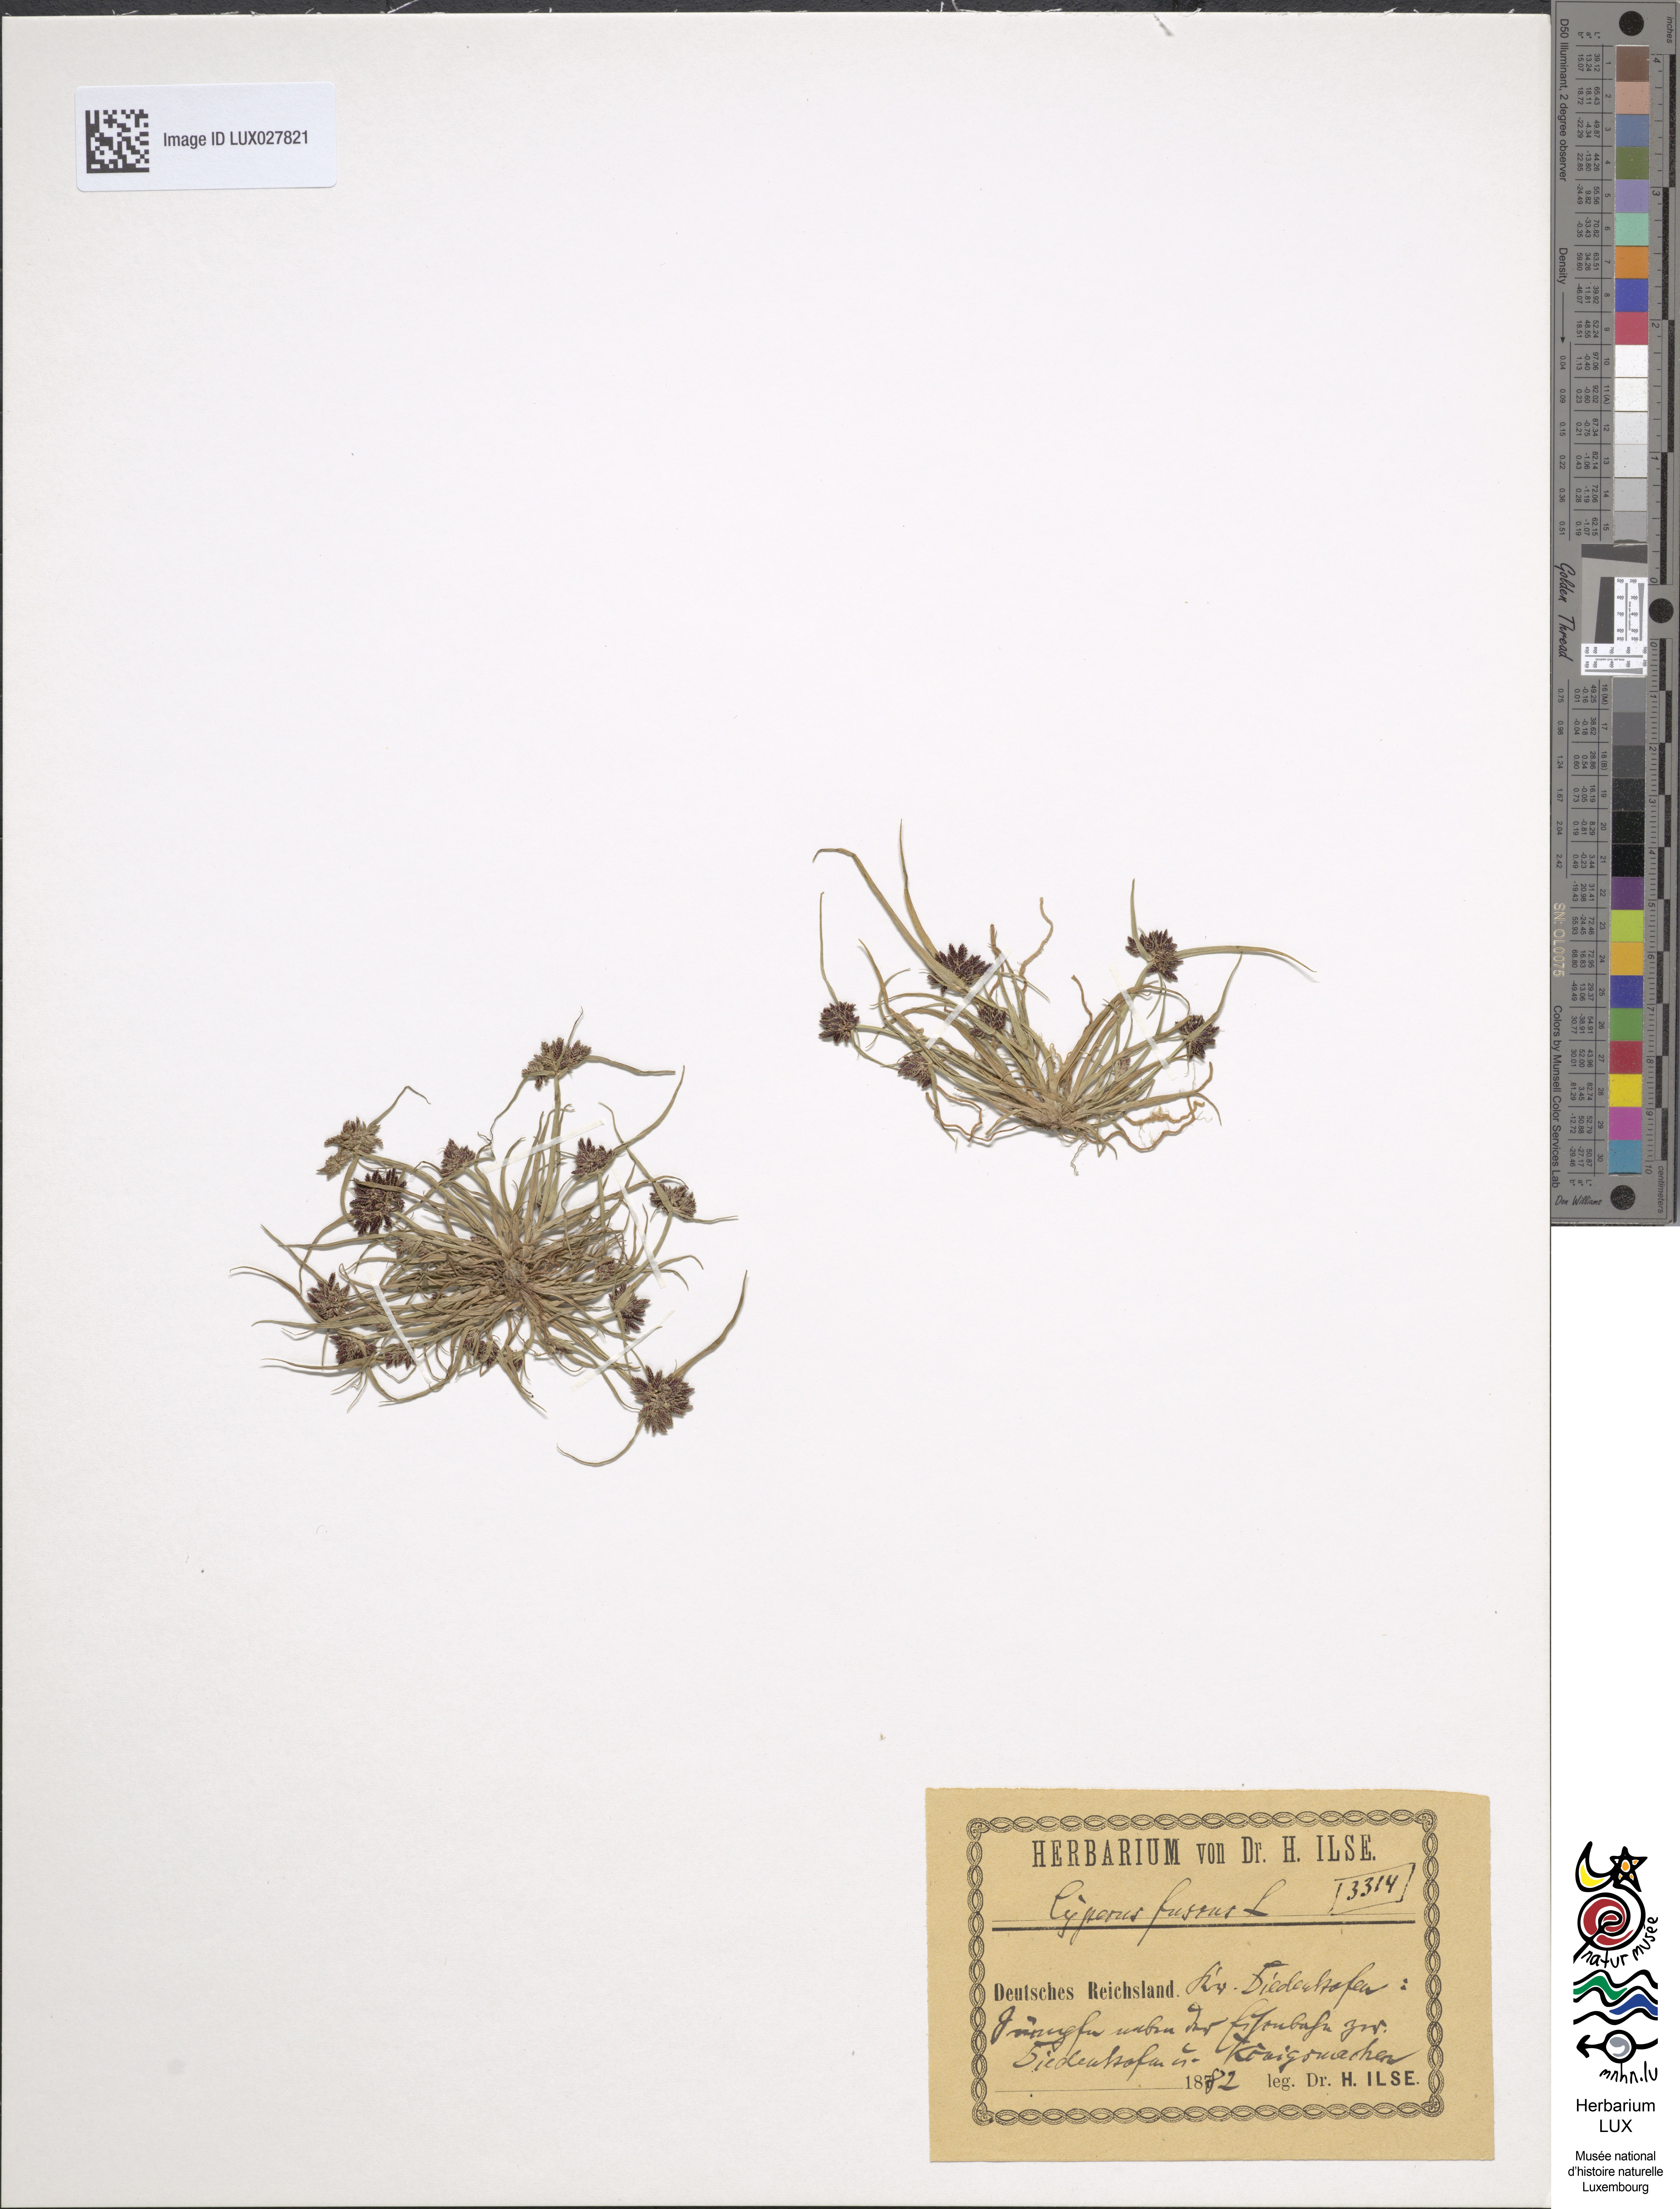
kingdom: Plantae
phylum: Tracheophyta
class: Liliopsida
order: Poales
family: Cyperaceae
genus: Cyperus
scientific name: Cyperus fuscus
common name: Brown galingale
